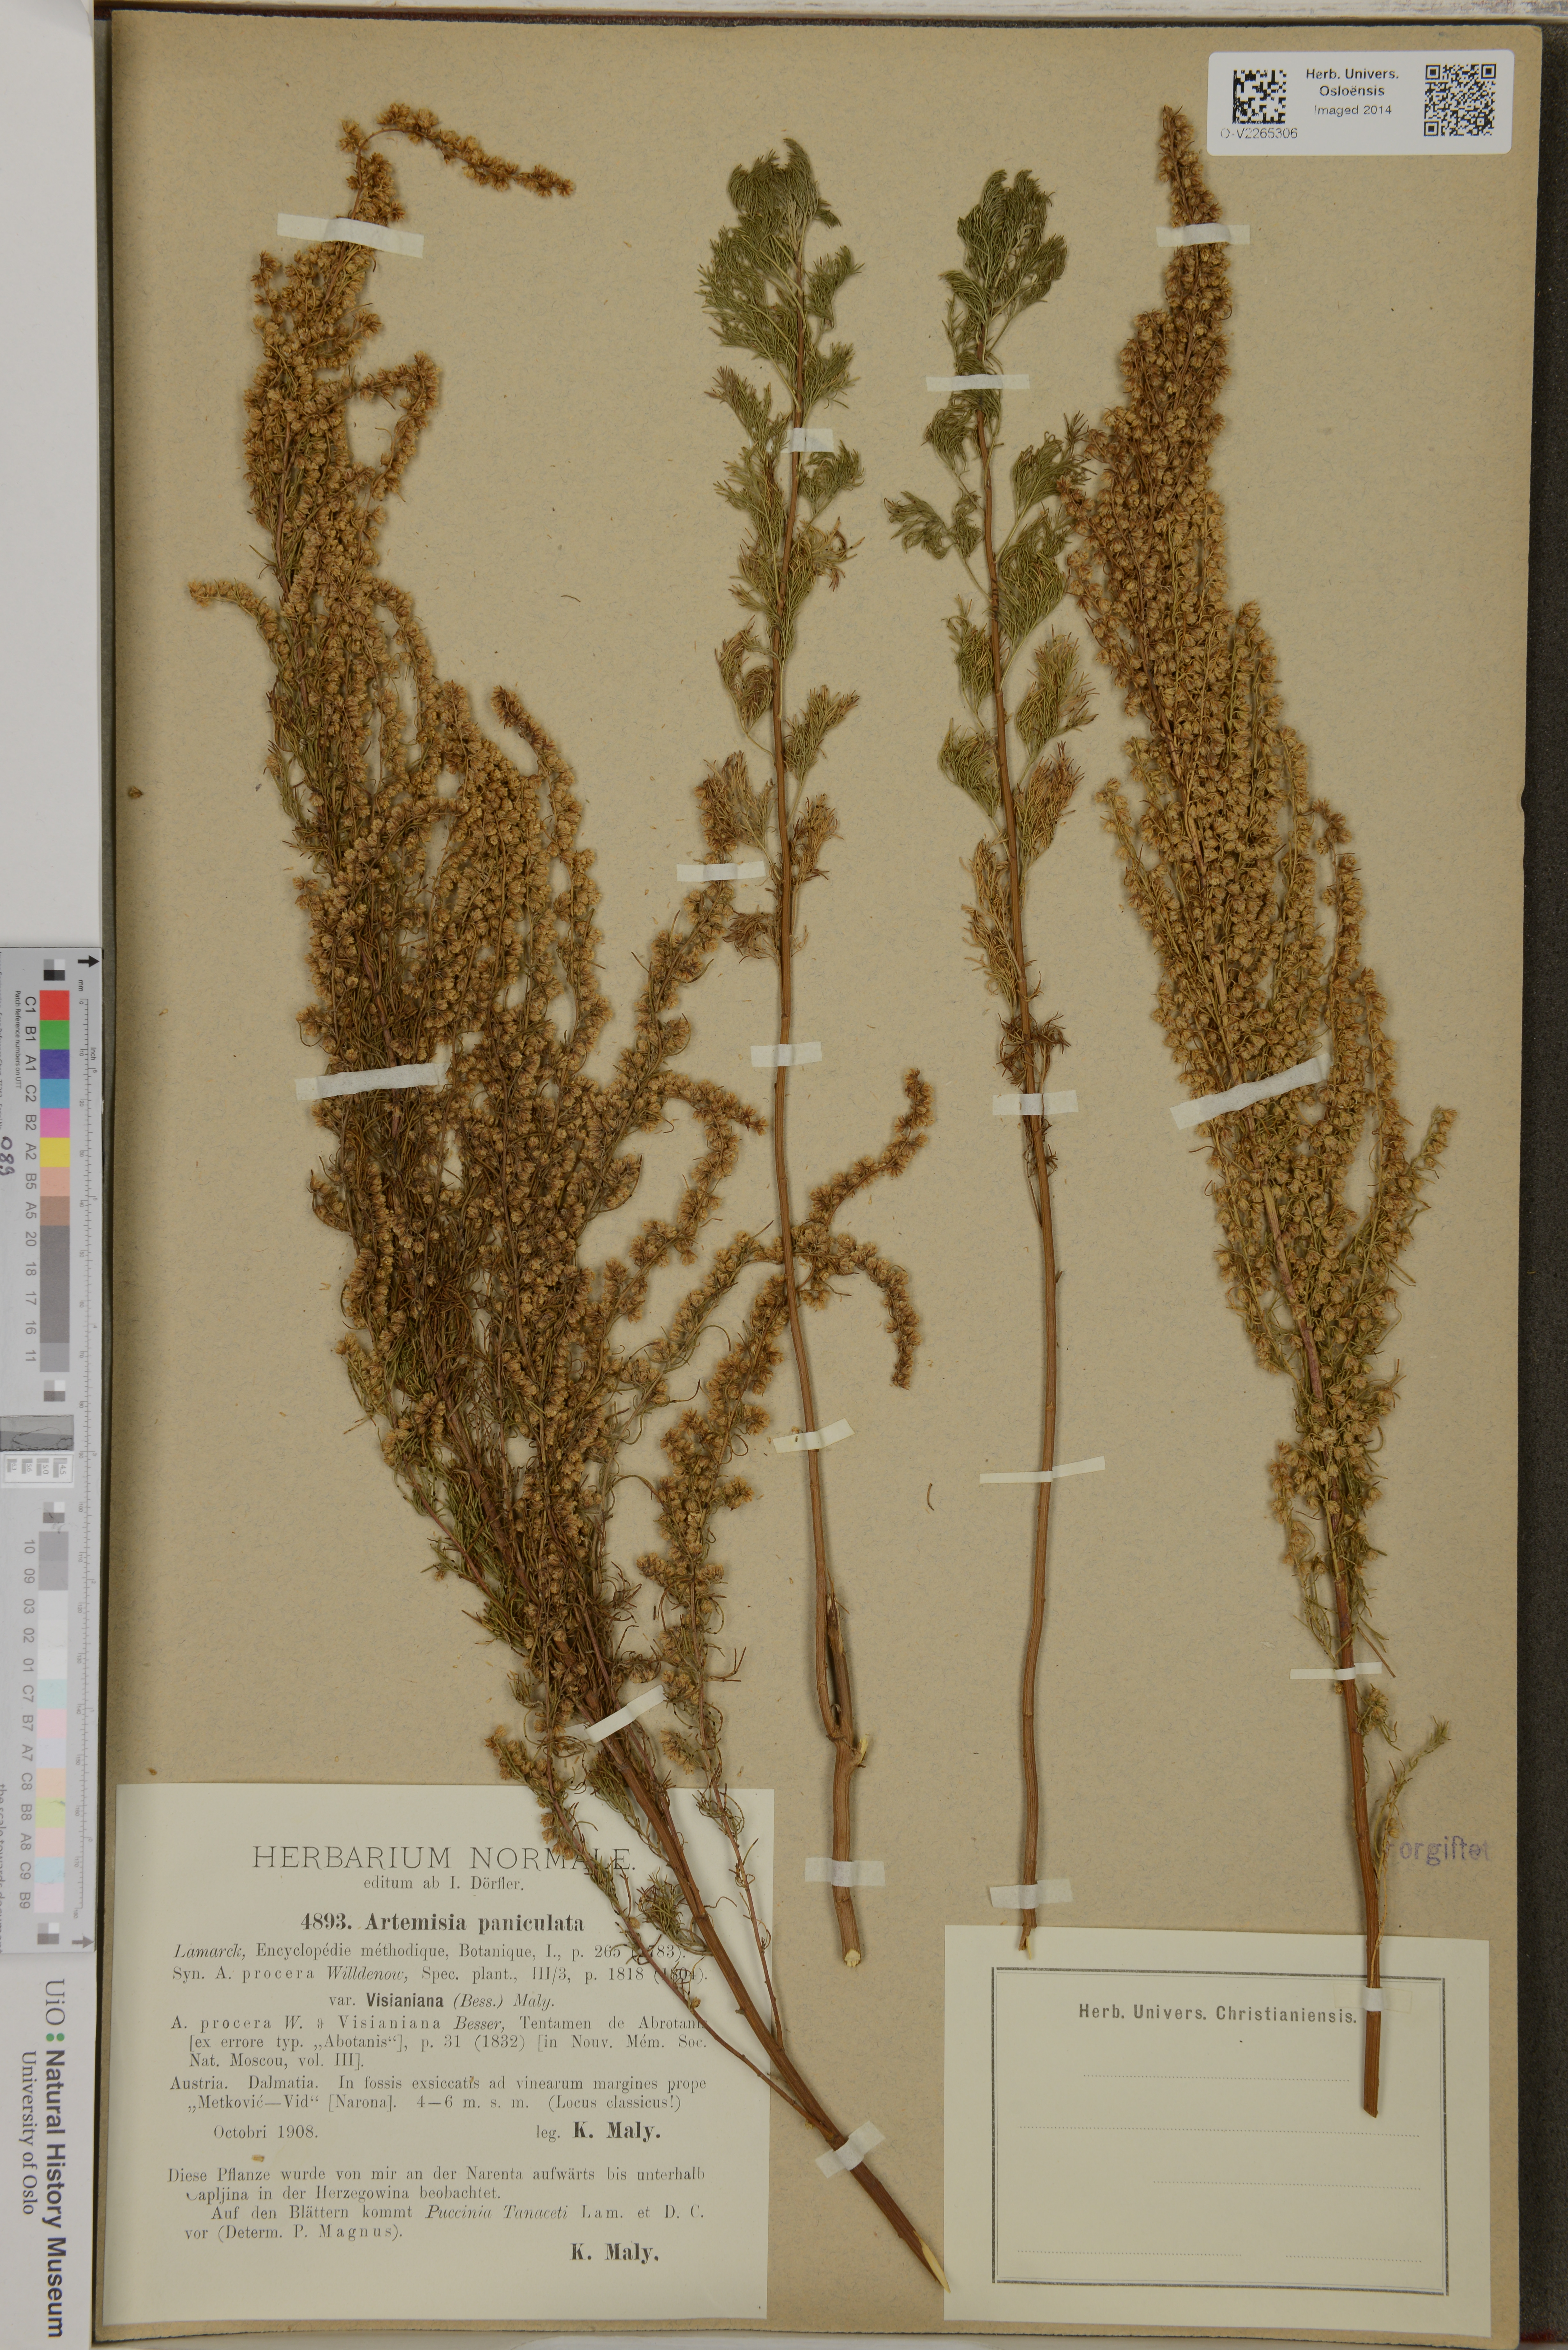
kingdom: Plantae
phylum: Tracheophyta
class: Magnoliopsida
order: Asterales
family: Asteraceae
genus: Artemisia
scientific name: Artemisia abrotanum
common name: Southernwood
